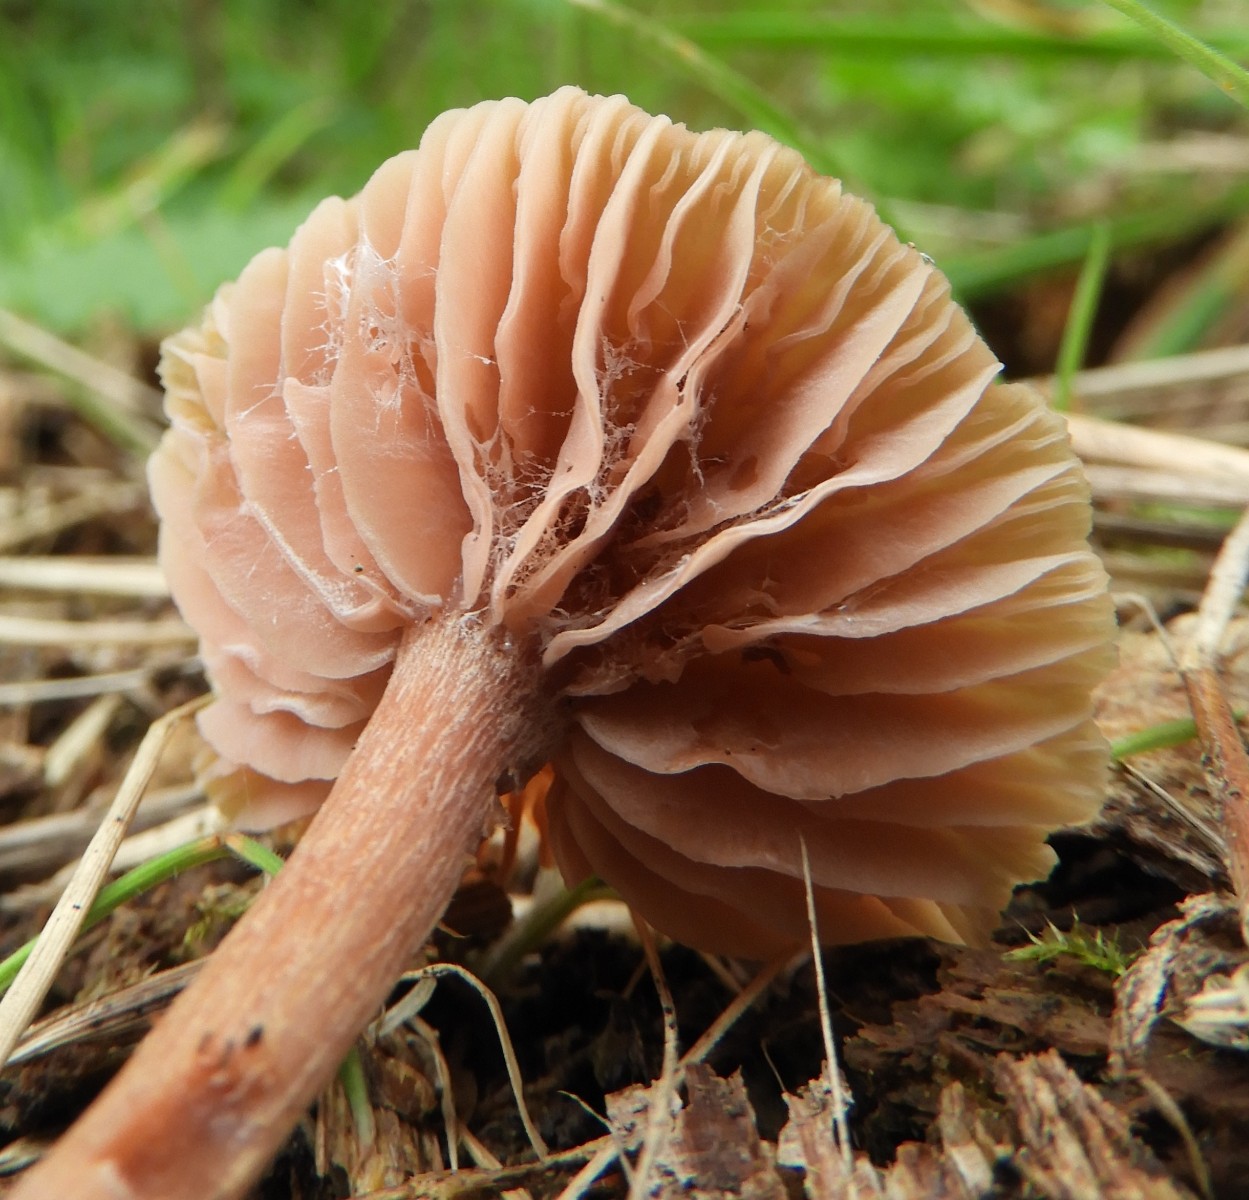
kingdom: Fungi
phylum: Basidiomycota
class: Agaricomycetes
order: Agaricales
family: Hydnangiaceae
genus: Laccaria
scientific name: Laccaria laccata
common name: rød ametysthat
